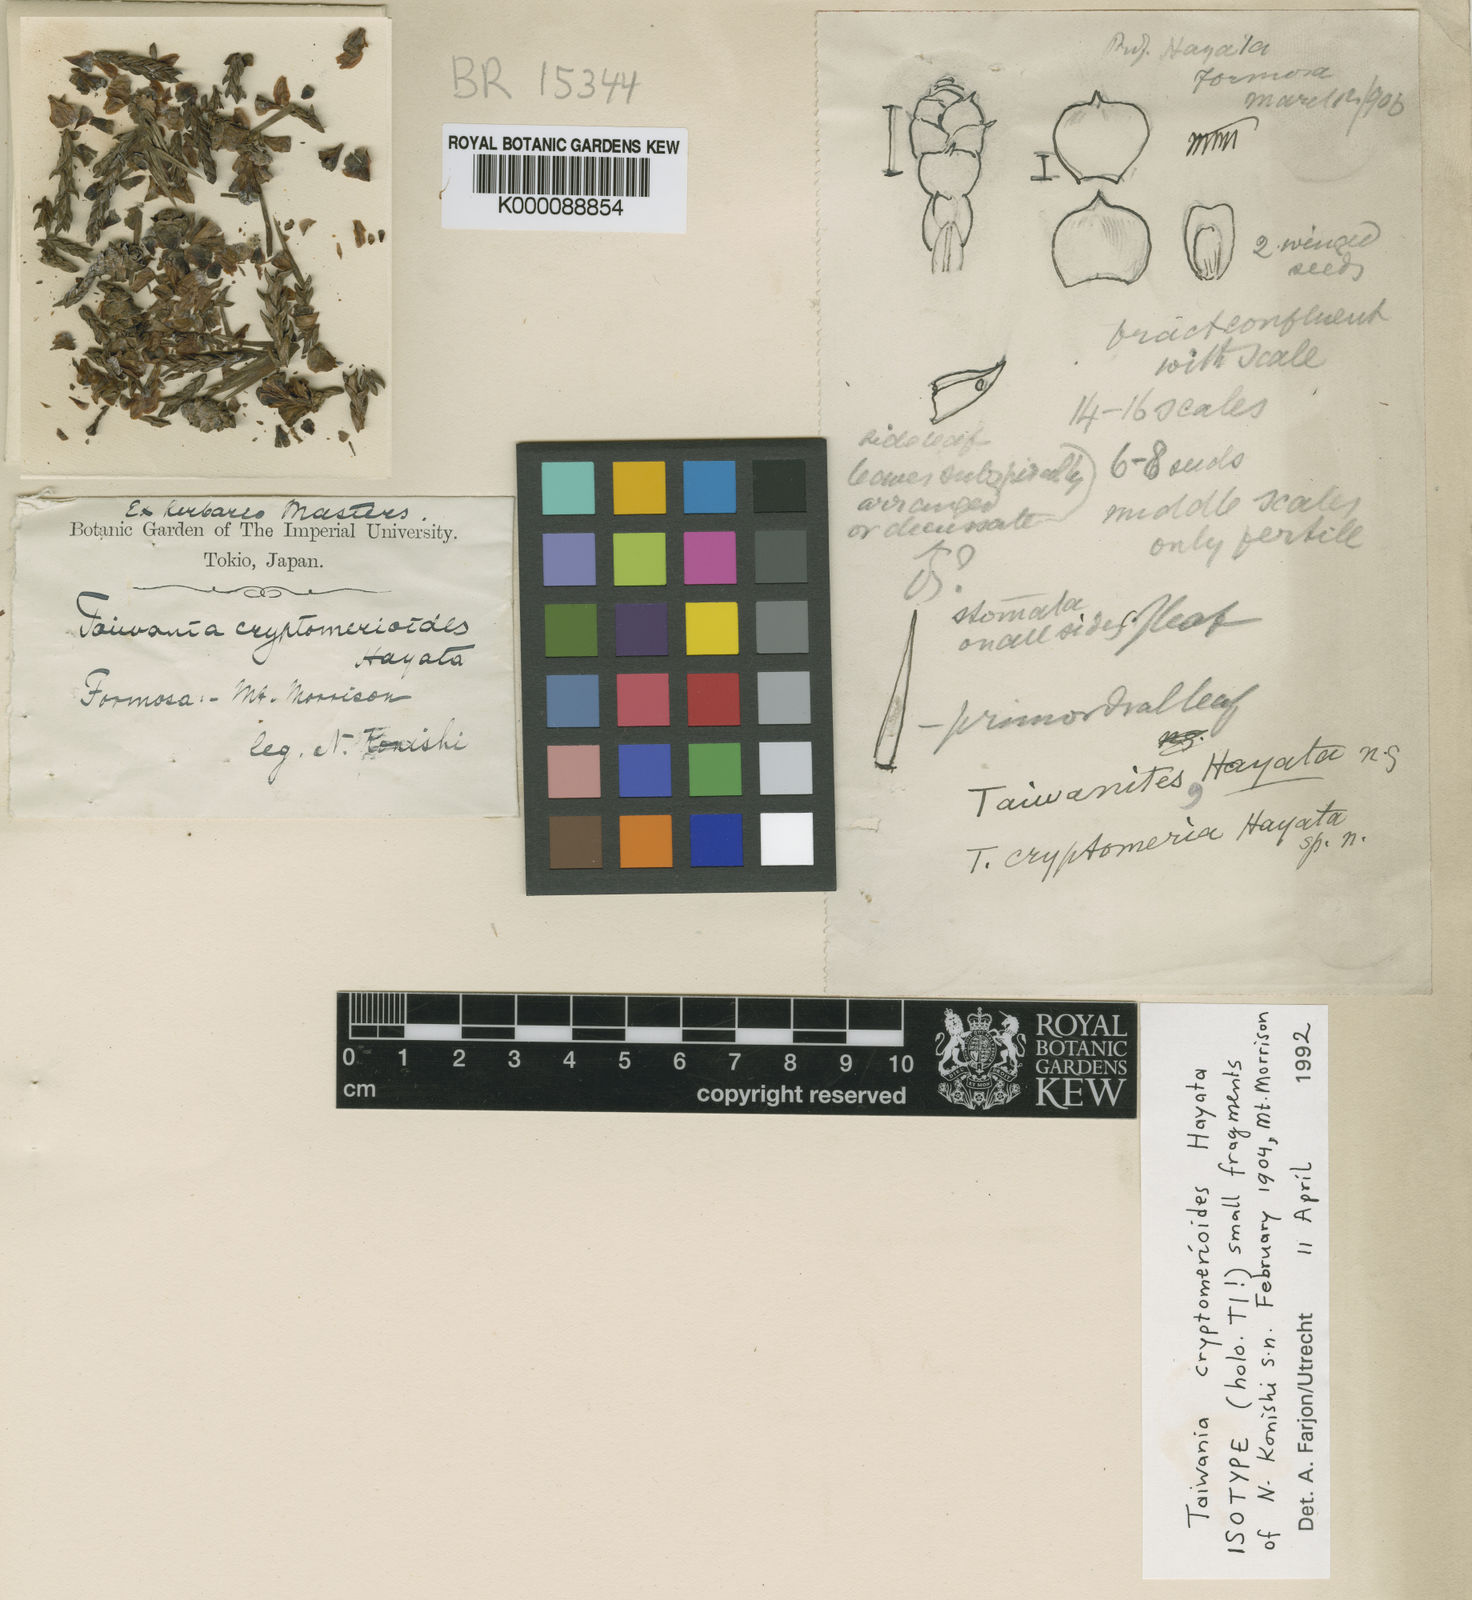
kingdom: Plantae
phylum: Tracheophyta
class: Pinopsida
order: Pinales
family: Cupressaceae
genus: Taiwania
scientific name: Taiwania cryptomerioides
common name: Coffin tree
